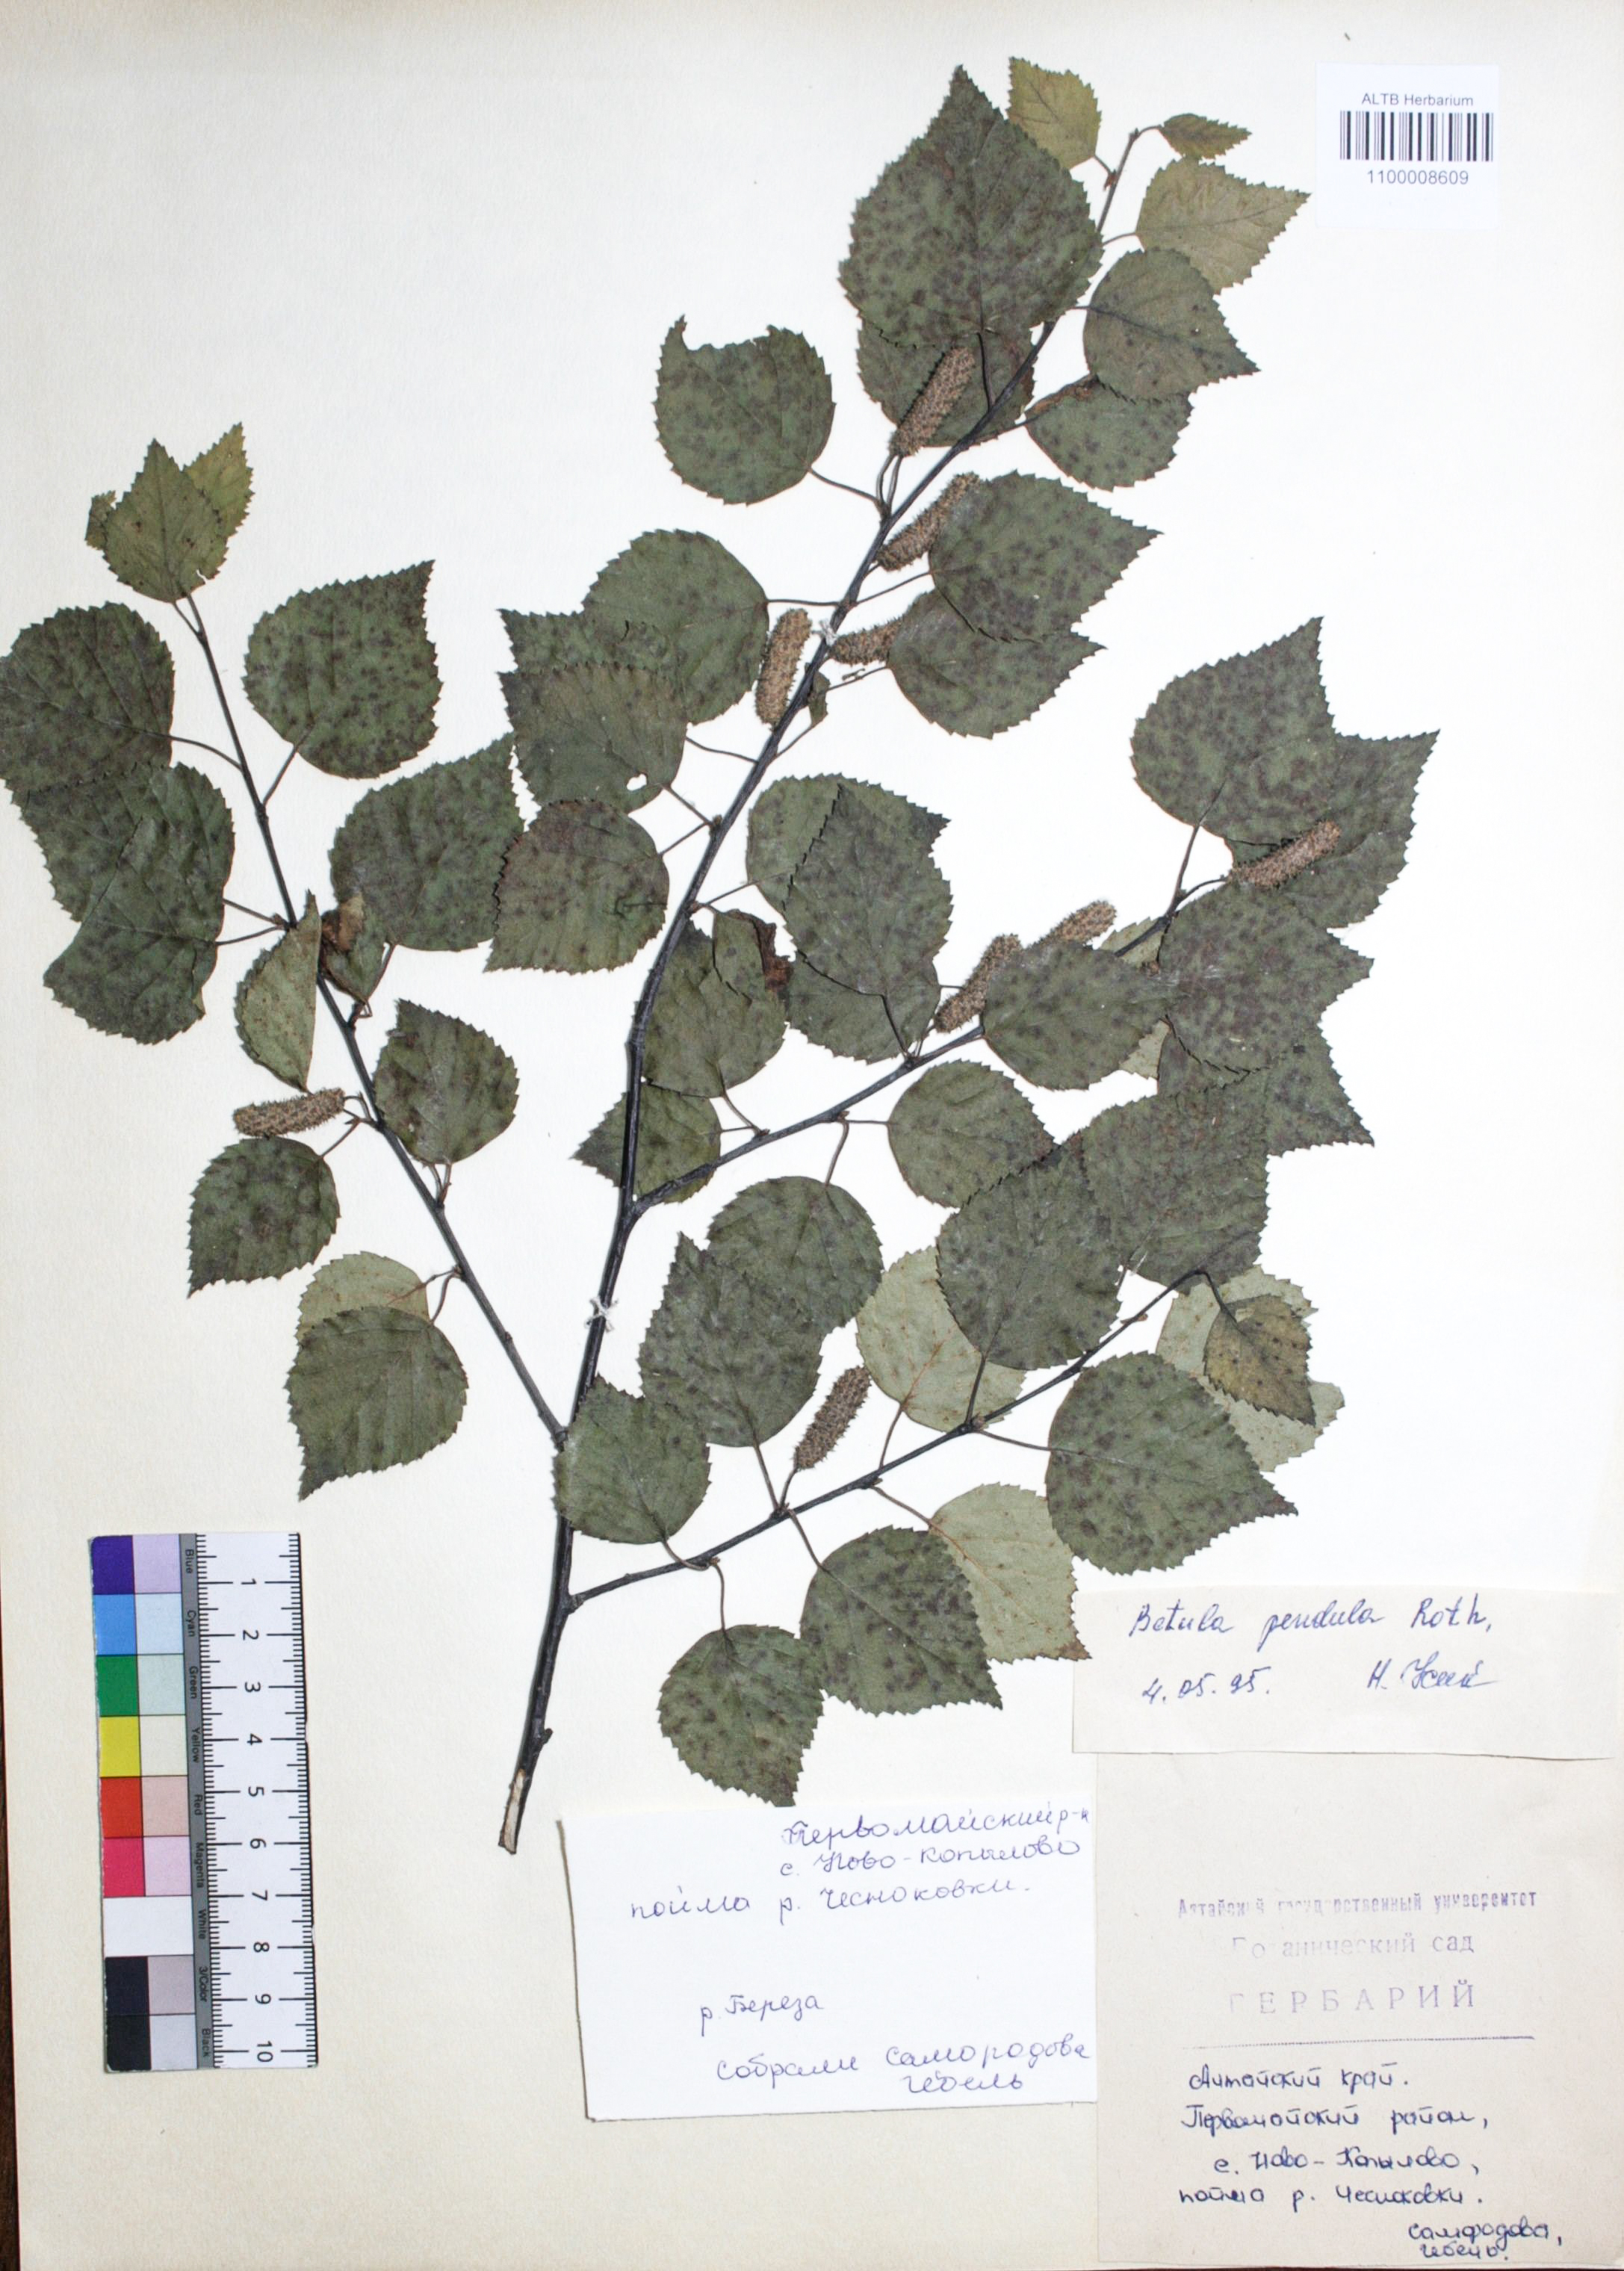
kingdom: Plantae
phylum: Tracheophyta
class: Magnoliopsida
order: Fagales
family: Betulaceae
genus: Betula
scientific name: Betula pendula
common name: Silver birch
